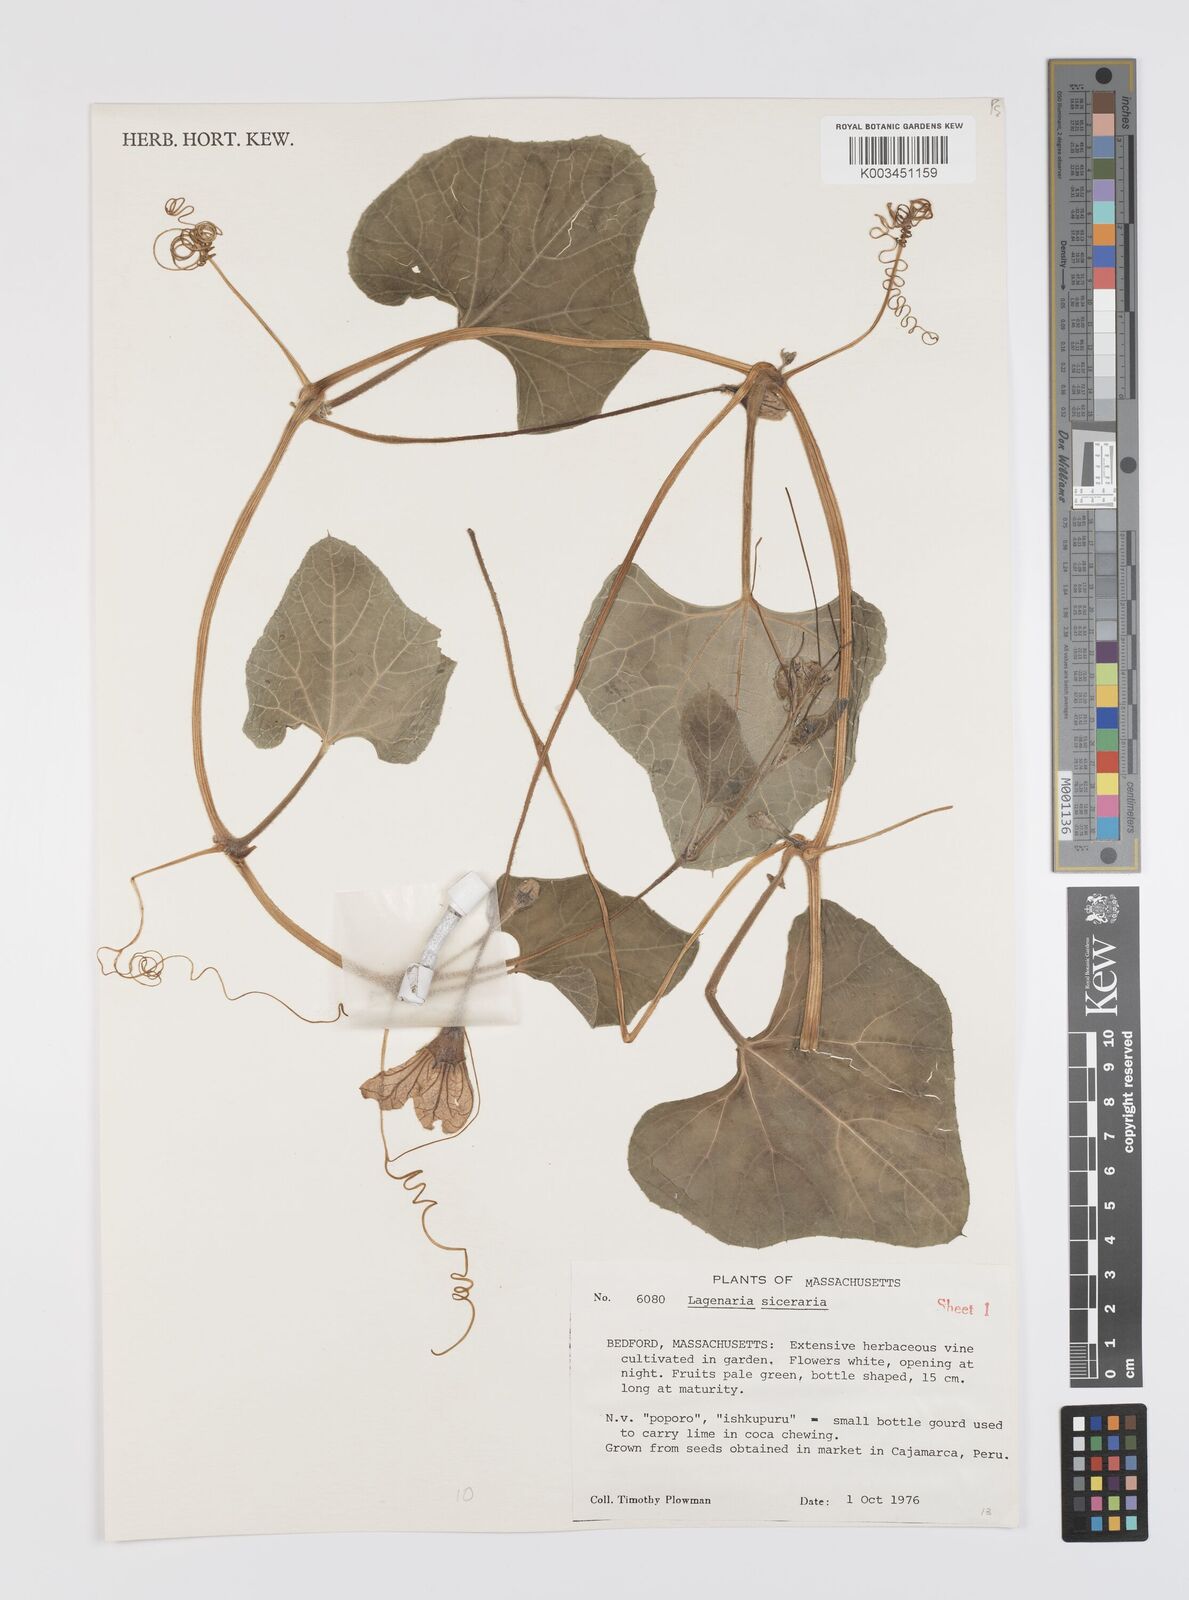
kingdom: Plantae
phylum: Tracheophyta
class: Magnoliopsida
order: Cucurbitales
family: Cucurbitaceae
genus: Lagenaria
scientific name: Lagenaria siceraria
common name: Bottle gourd
